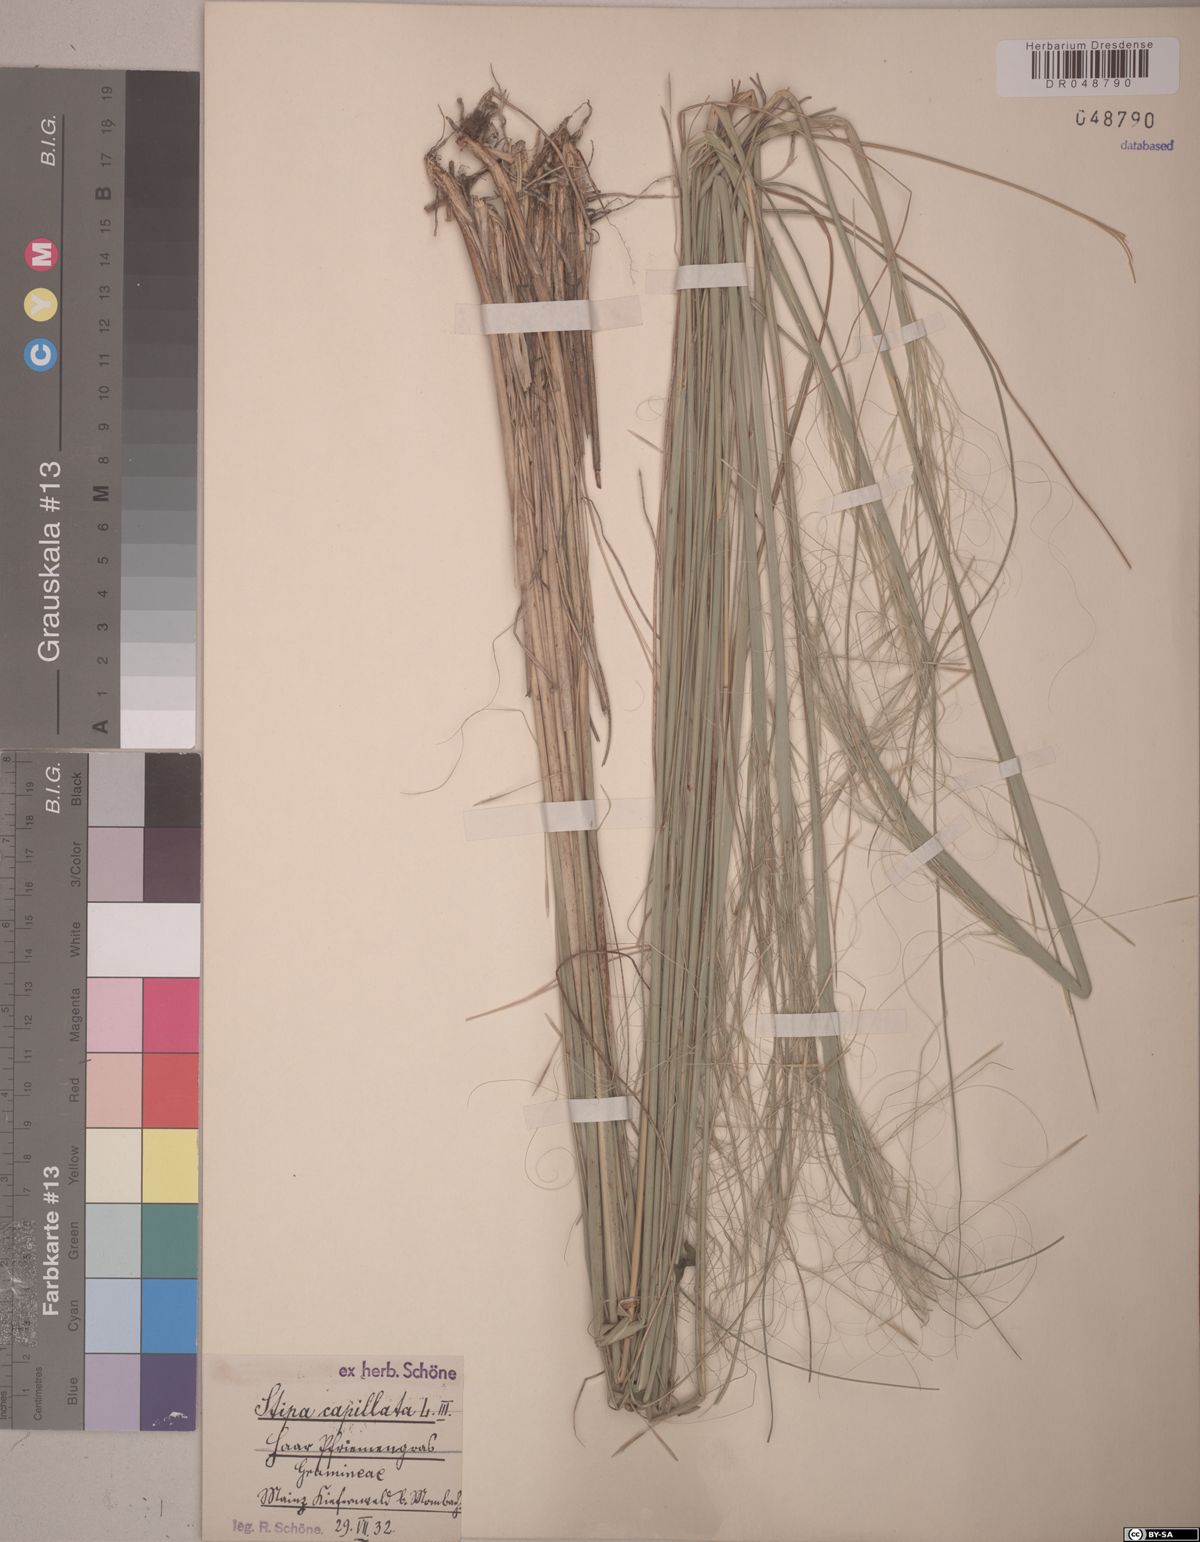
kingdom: Plantae
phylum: Tracheophyta
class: Liliopsida
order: Poales
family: Poaceae
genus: Stipa
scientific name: Stipa capillata
